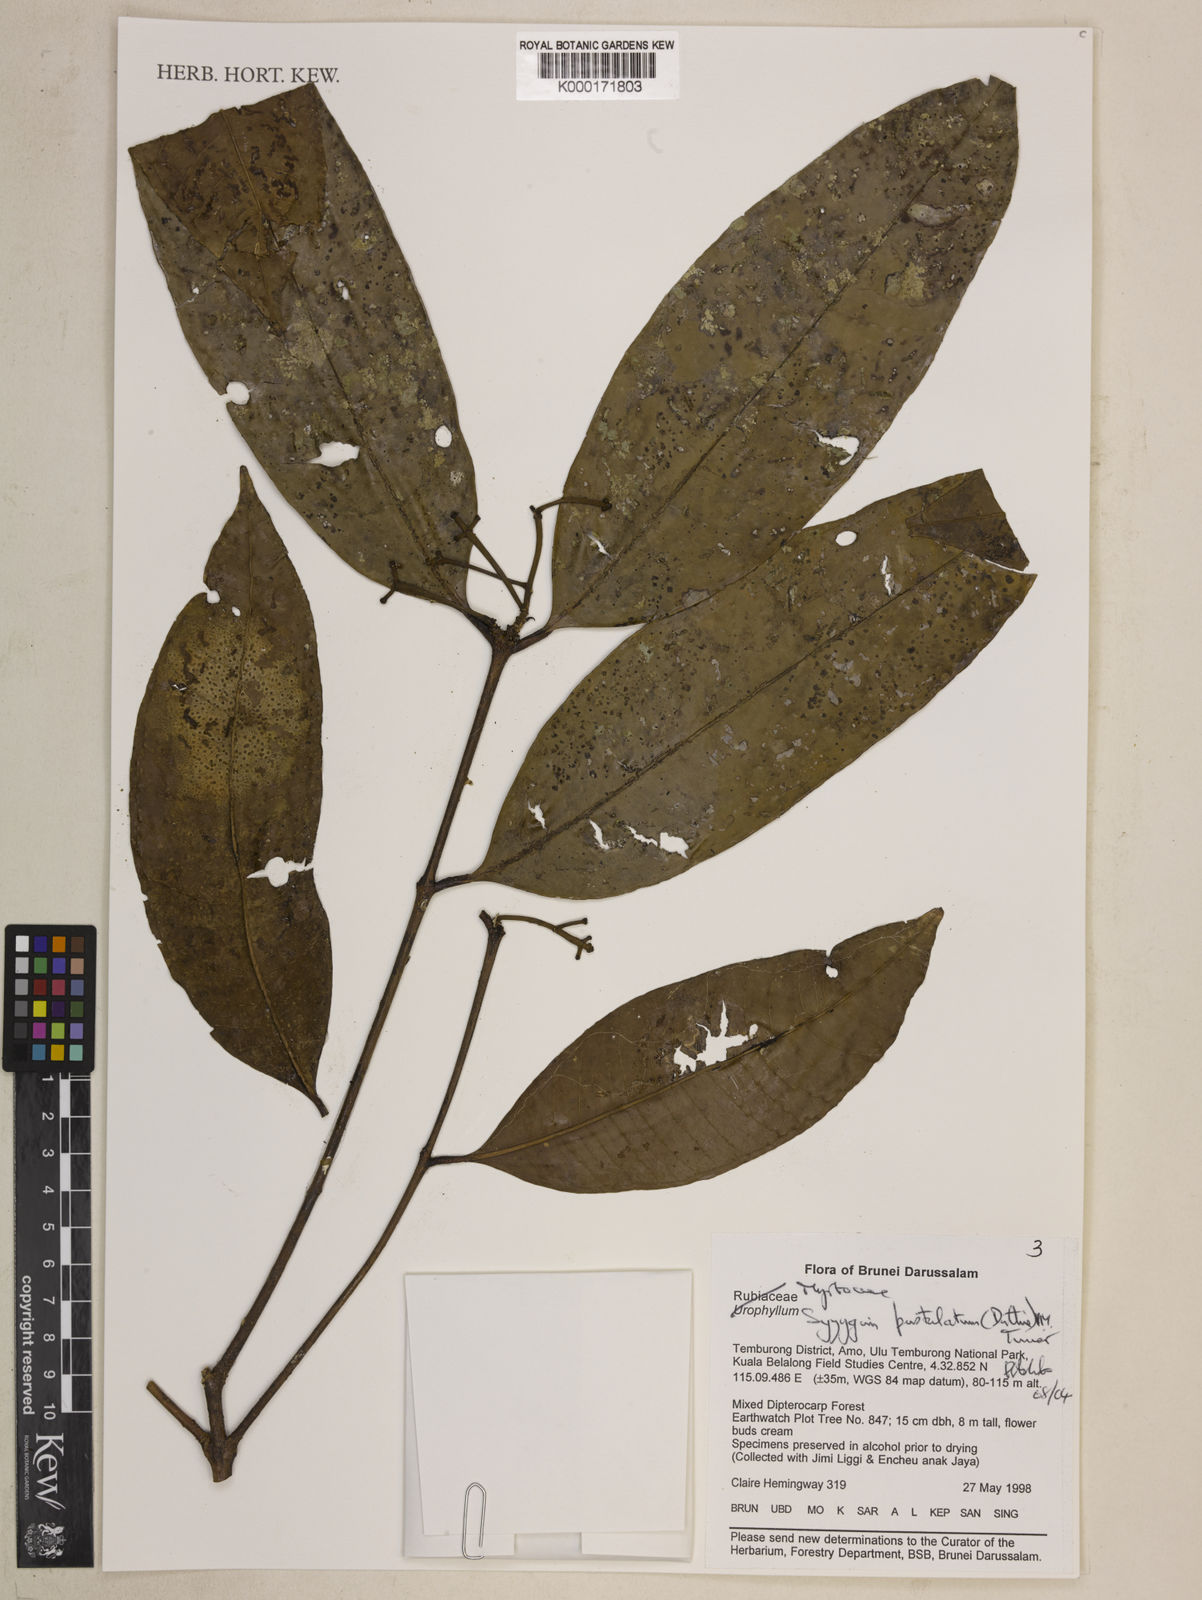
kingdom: Plantae
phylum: Tracheophyta
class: Magnoliopsida
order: Myrtales
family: Myrtaceae
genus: Syzygium
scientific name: Syzygium
